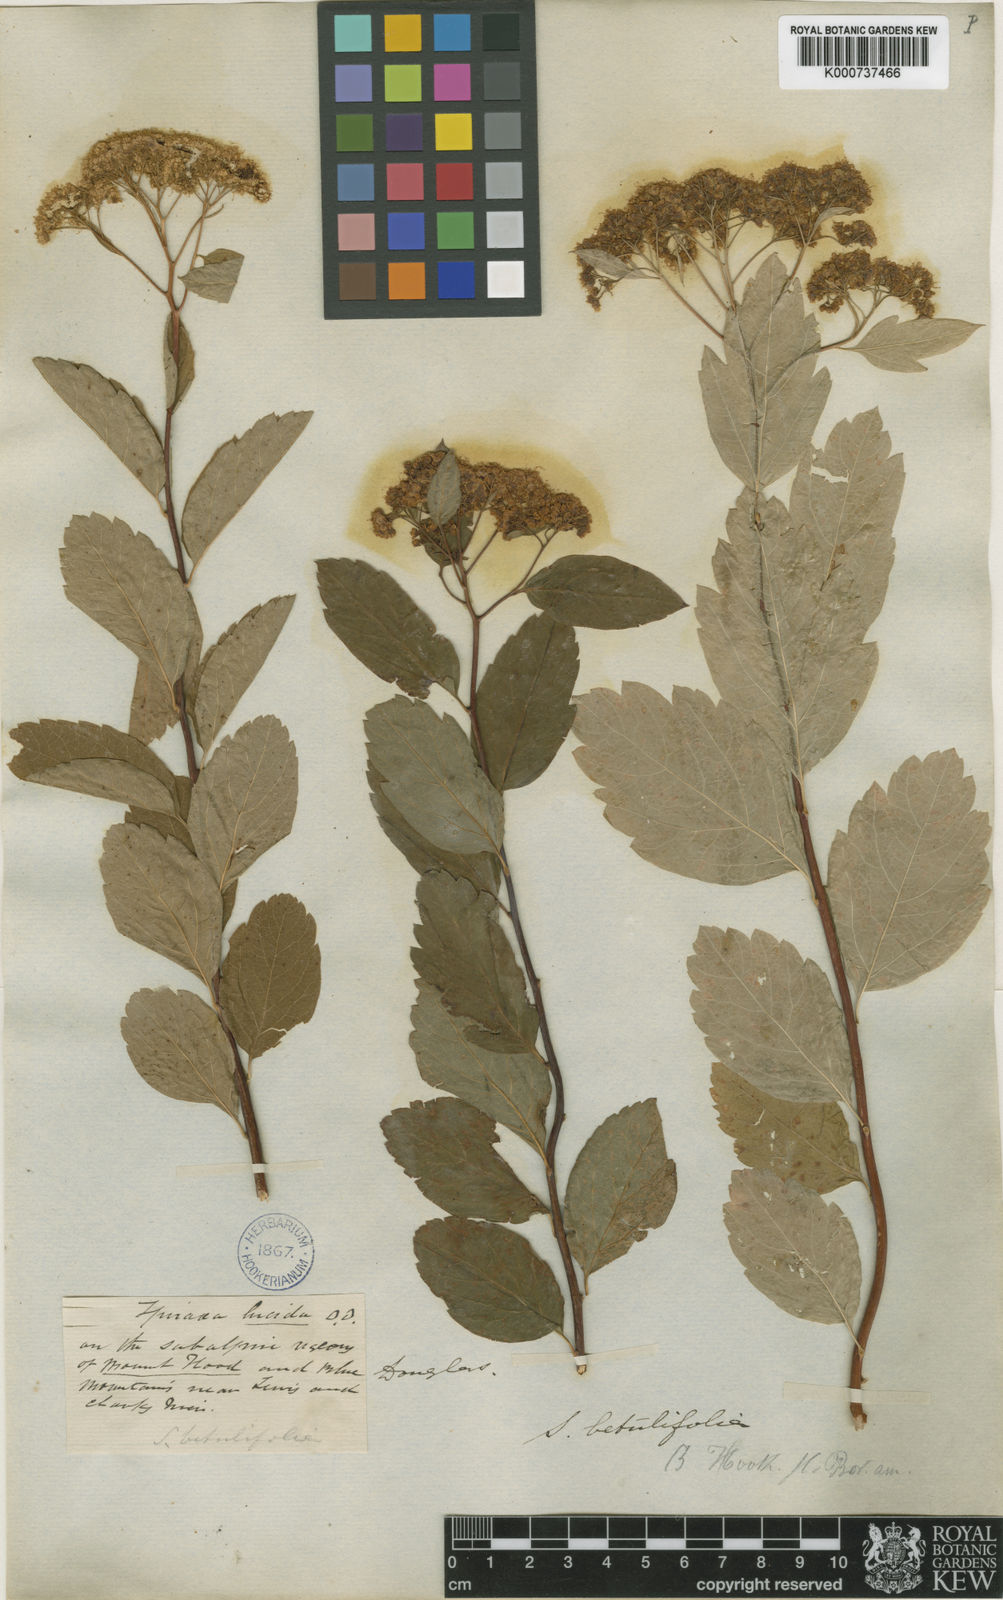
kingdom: Plantae
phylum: Tracheophyta
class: Magnoliopsida
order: Rosales
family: Rosaceae
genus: Spiraea
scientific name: Spiraea
